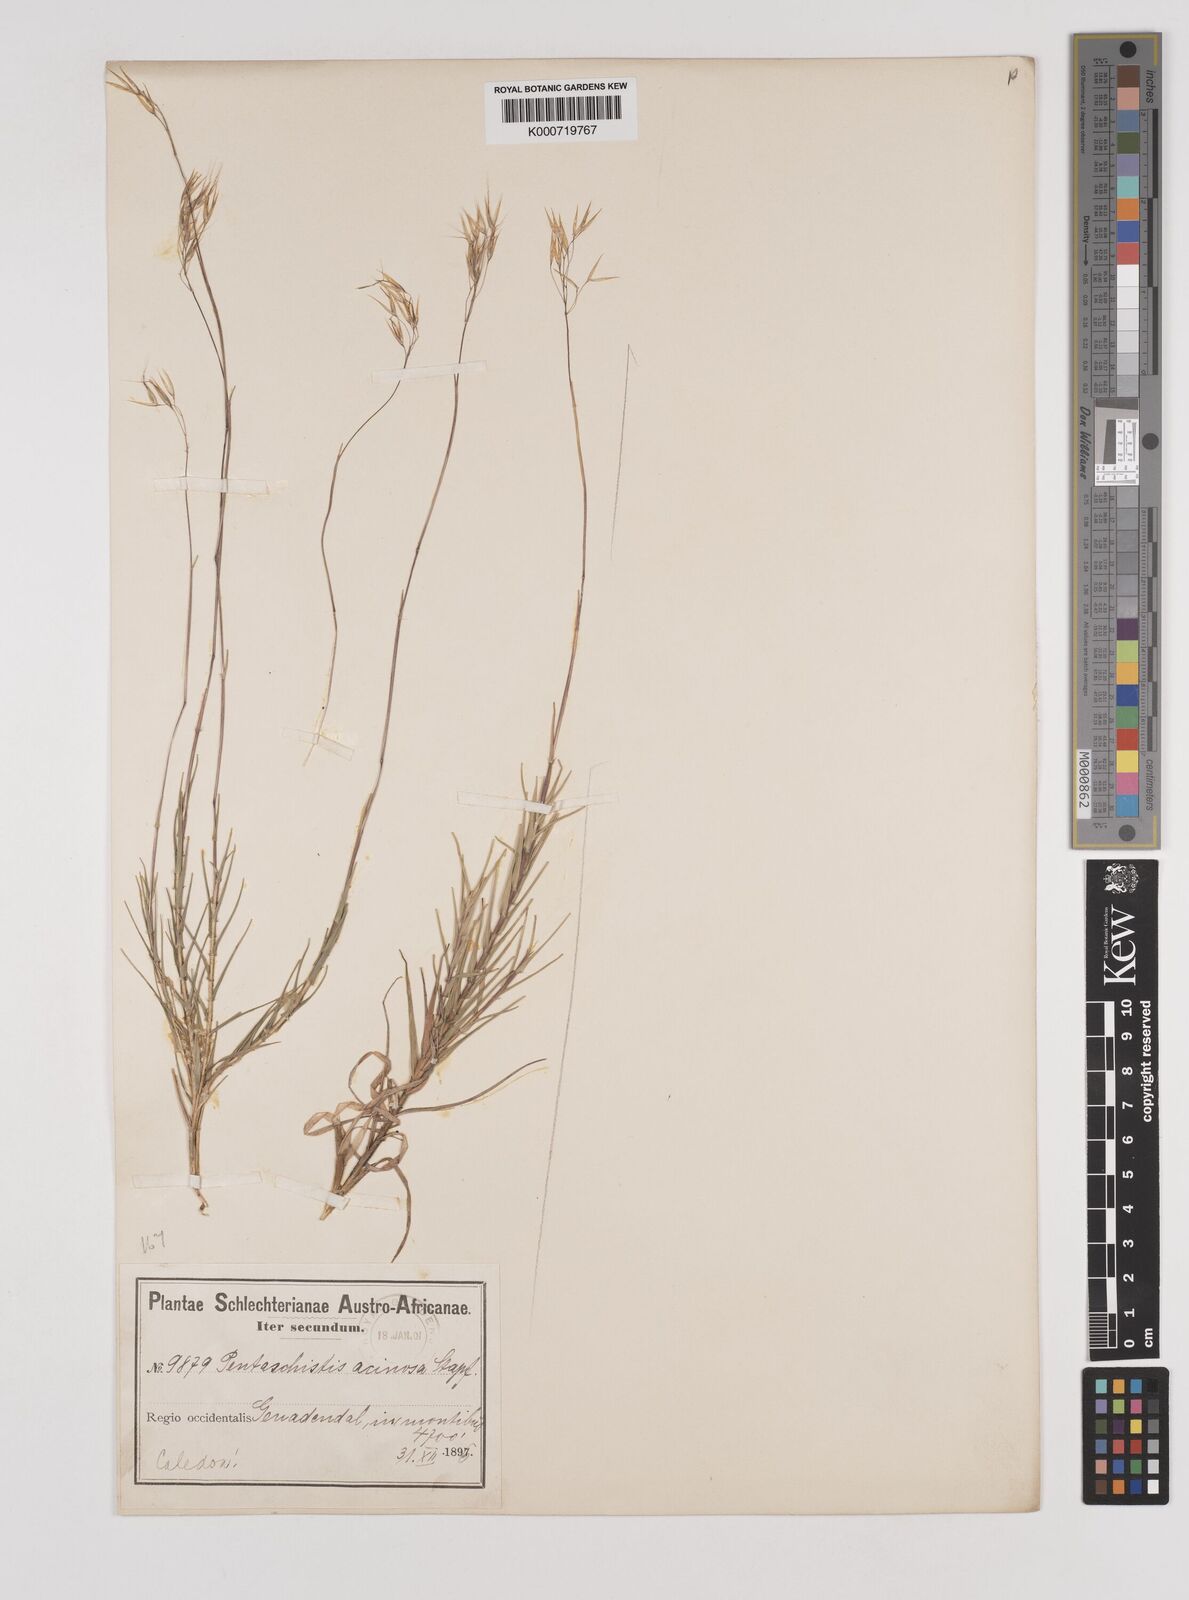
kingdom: Plantae
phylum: Tracheophyta
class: Liliopsida
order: Poales
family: Poaceae
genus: Pentameris
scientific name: Pentameris acinosa
